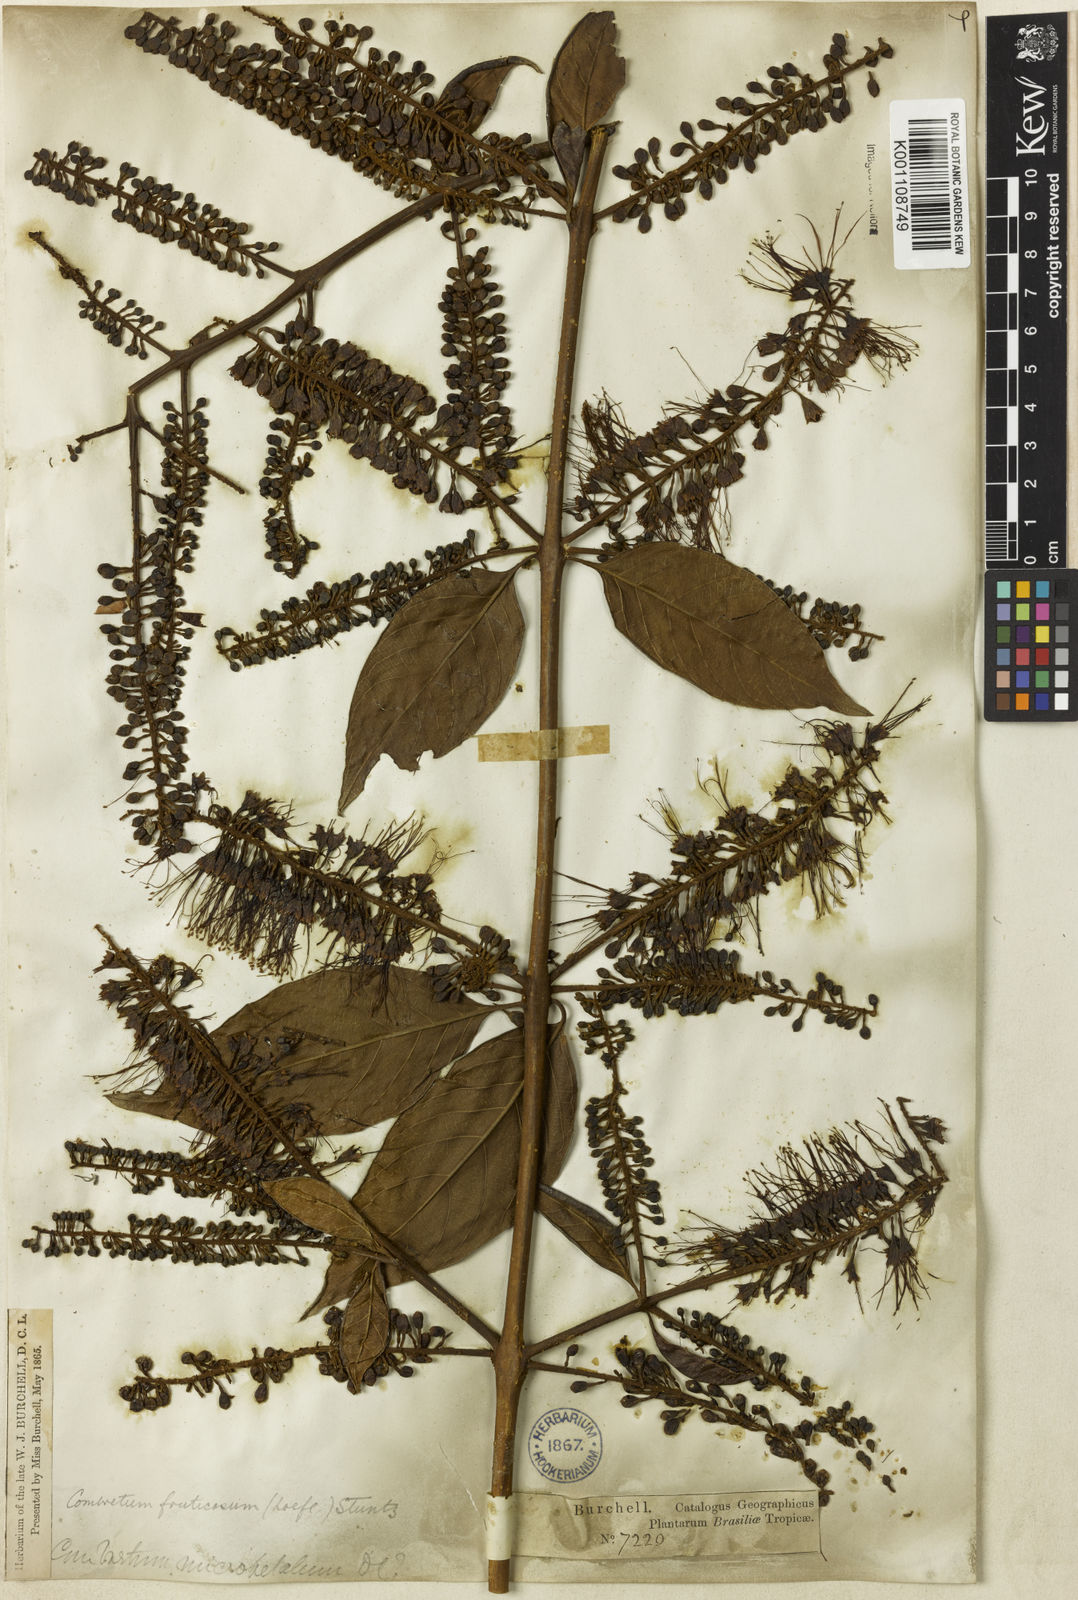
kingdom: Plantae
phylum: Tracheophyta
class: Magnoliopsida
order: Myrtales
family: Combretaceae
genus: Combretum
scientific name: Combretum fruticosum
